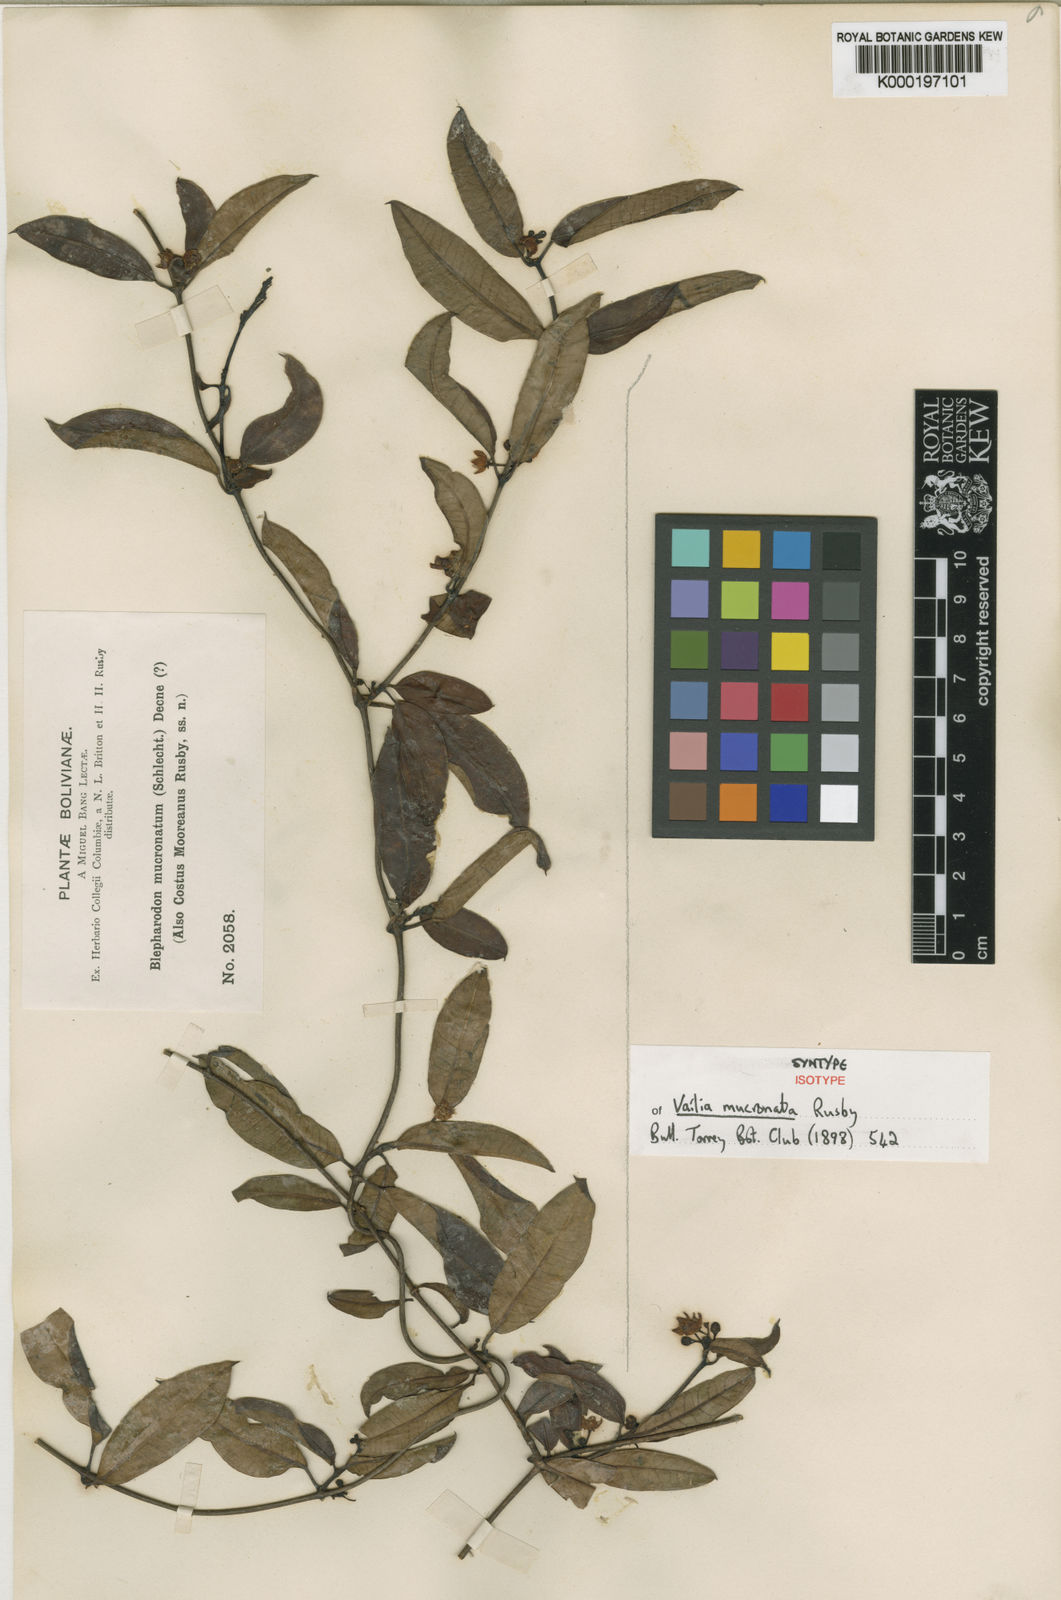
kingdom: Plantae
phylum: Tracheophyta
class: Magnoliopsida
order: Gentianales
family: Apocynaceae
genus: Vailia
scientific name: Vailia salicina
